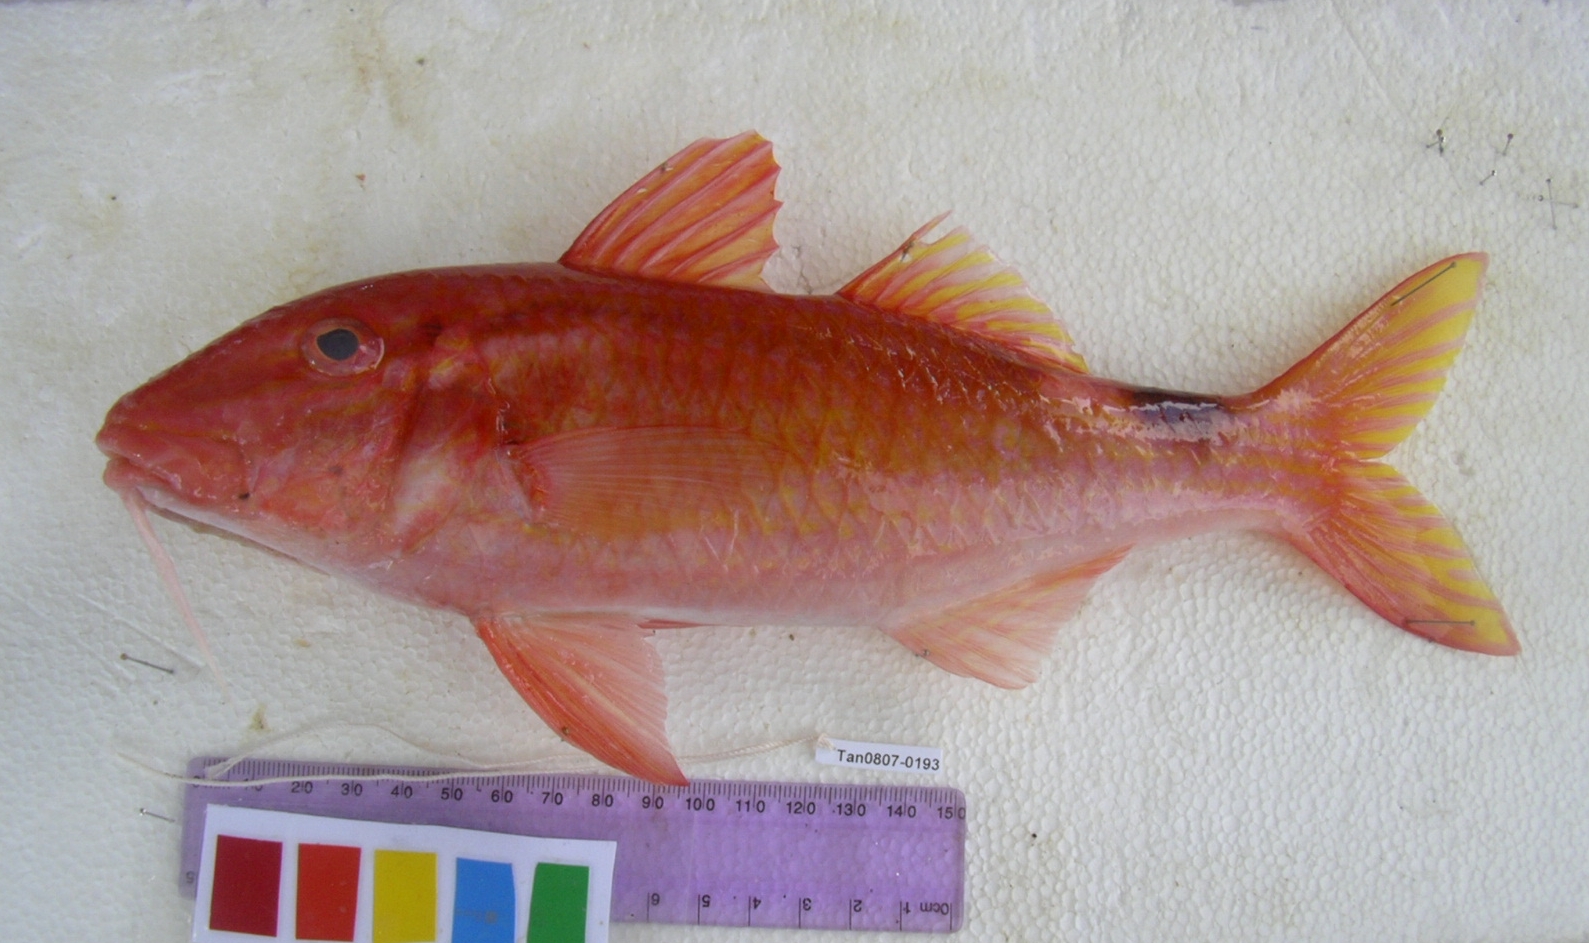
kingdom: Animalia
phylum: Chordata
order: Perciformes
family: Mullidae
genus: Parupeneus
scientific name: Parupeneus rubescens
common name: Rosy goatfish
